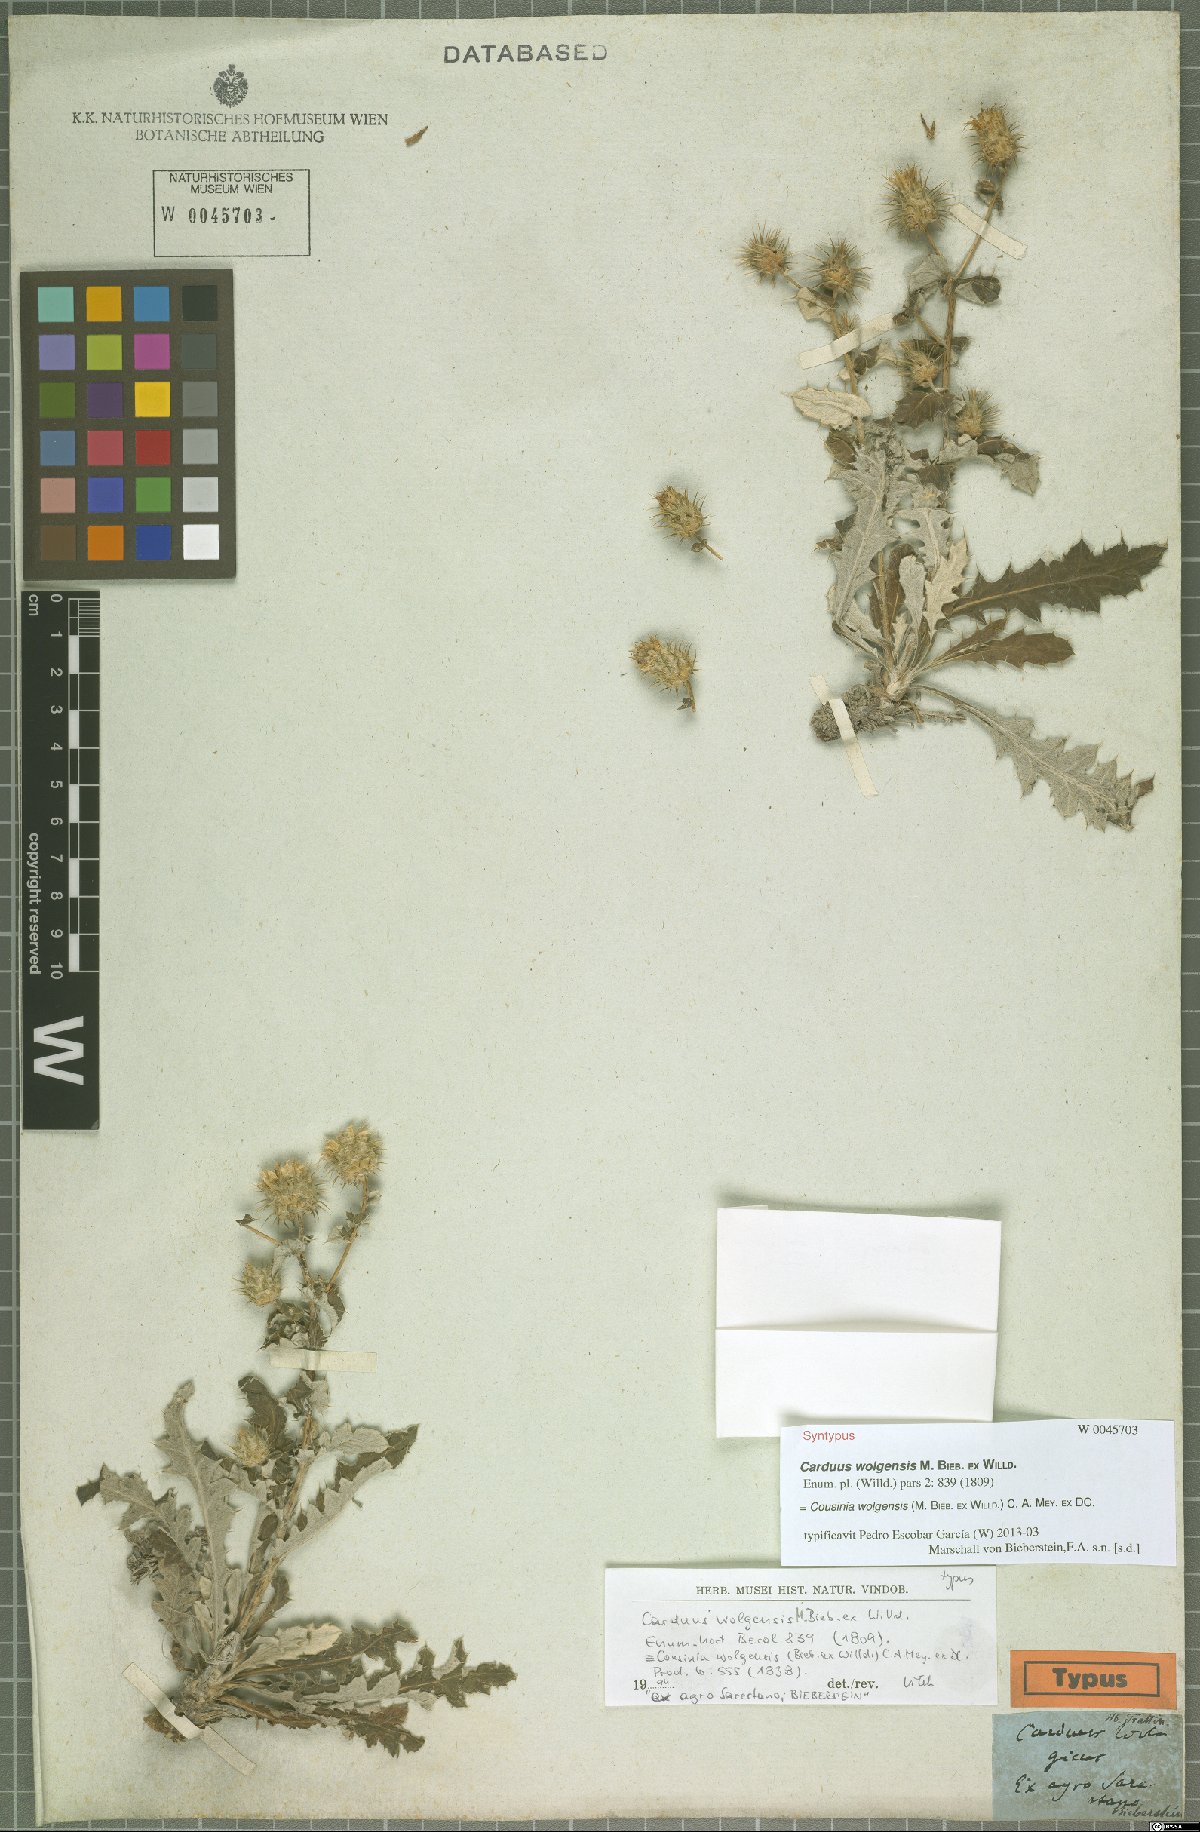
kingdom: Plantae
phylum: Tracheophyta
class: Magnoliopsida
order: Asterales
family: Asteraceae
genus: Cousinia
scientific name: Cousinia astracanica
